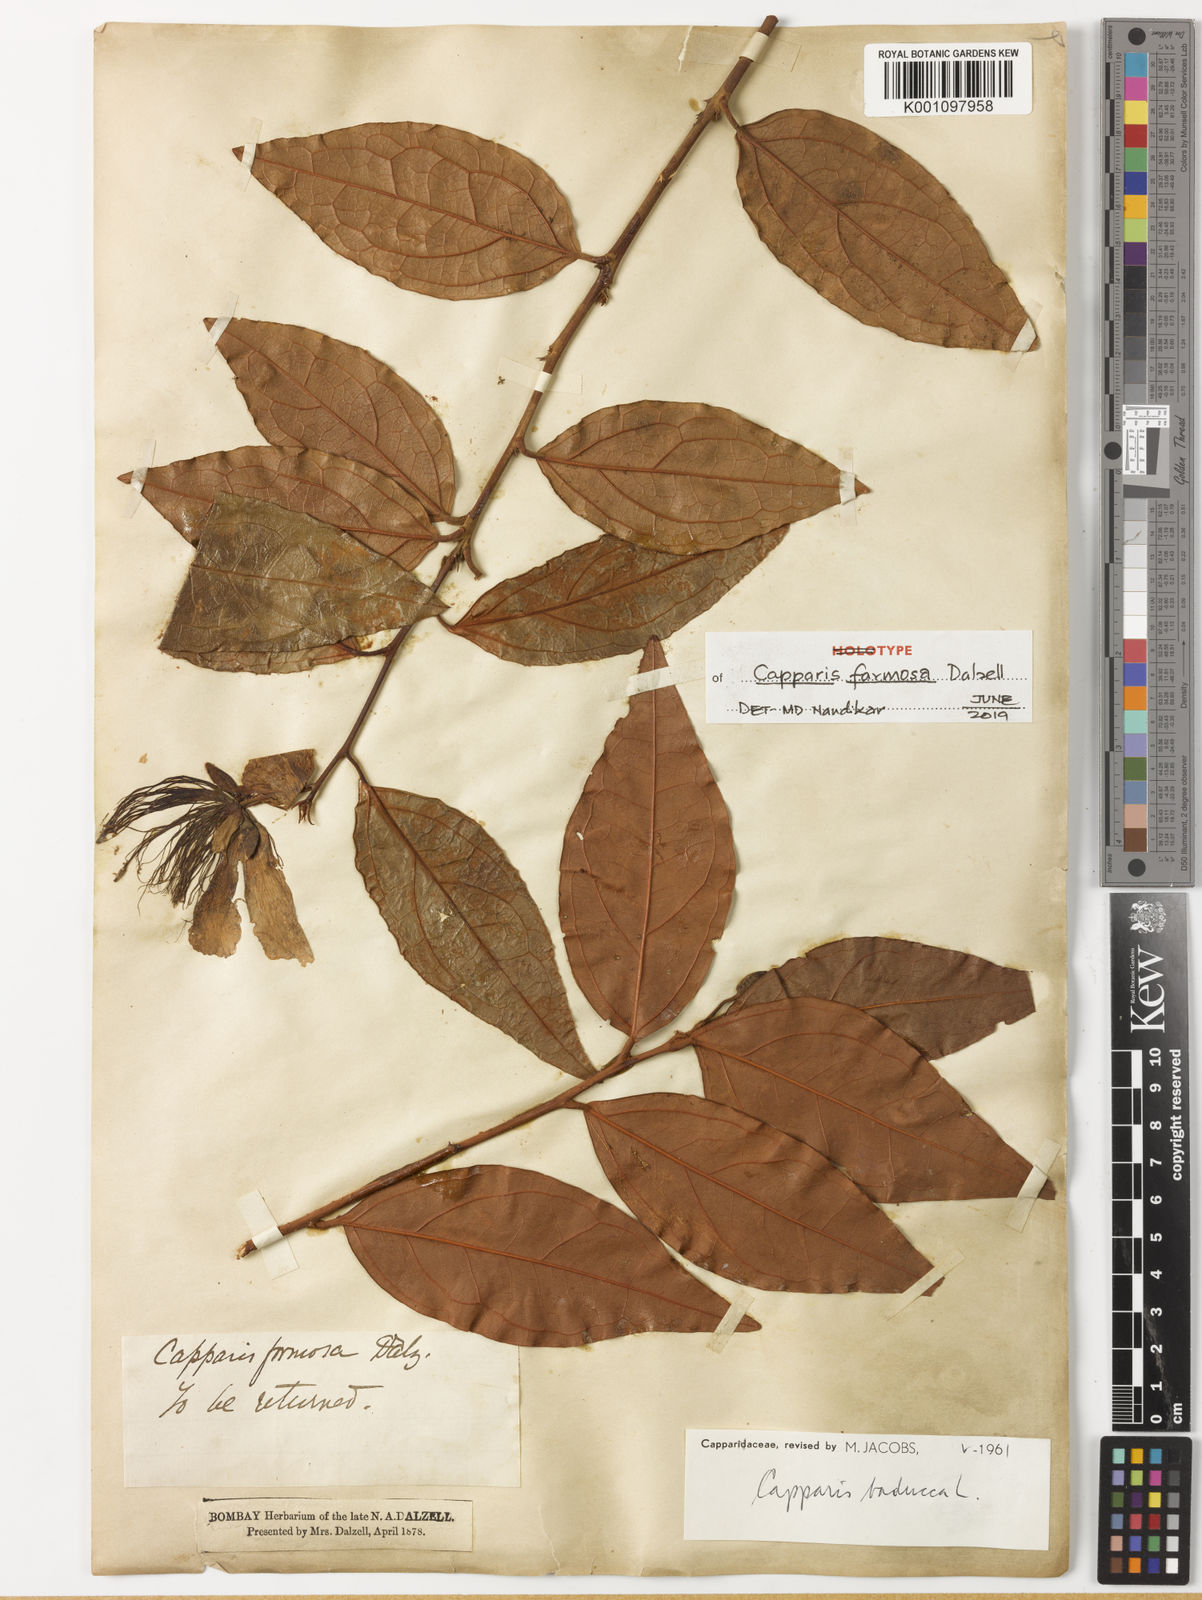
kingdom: Plantae
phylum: Tracheophyta
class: Magnoliopsida
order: Brassicales
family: Capparaceae
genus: Capparis
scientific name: Capparis rheedei
